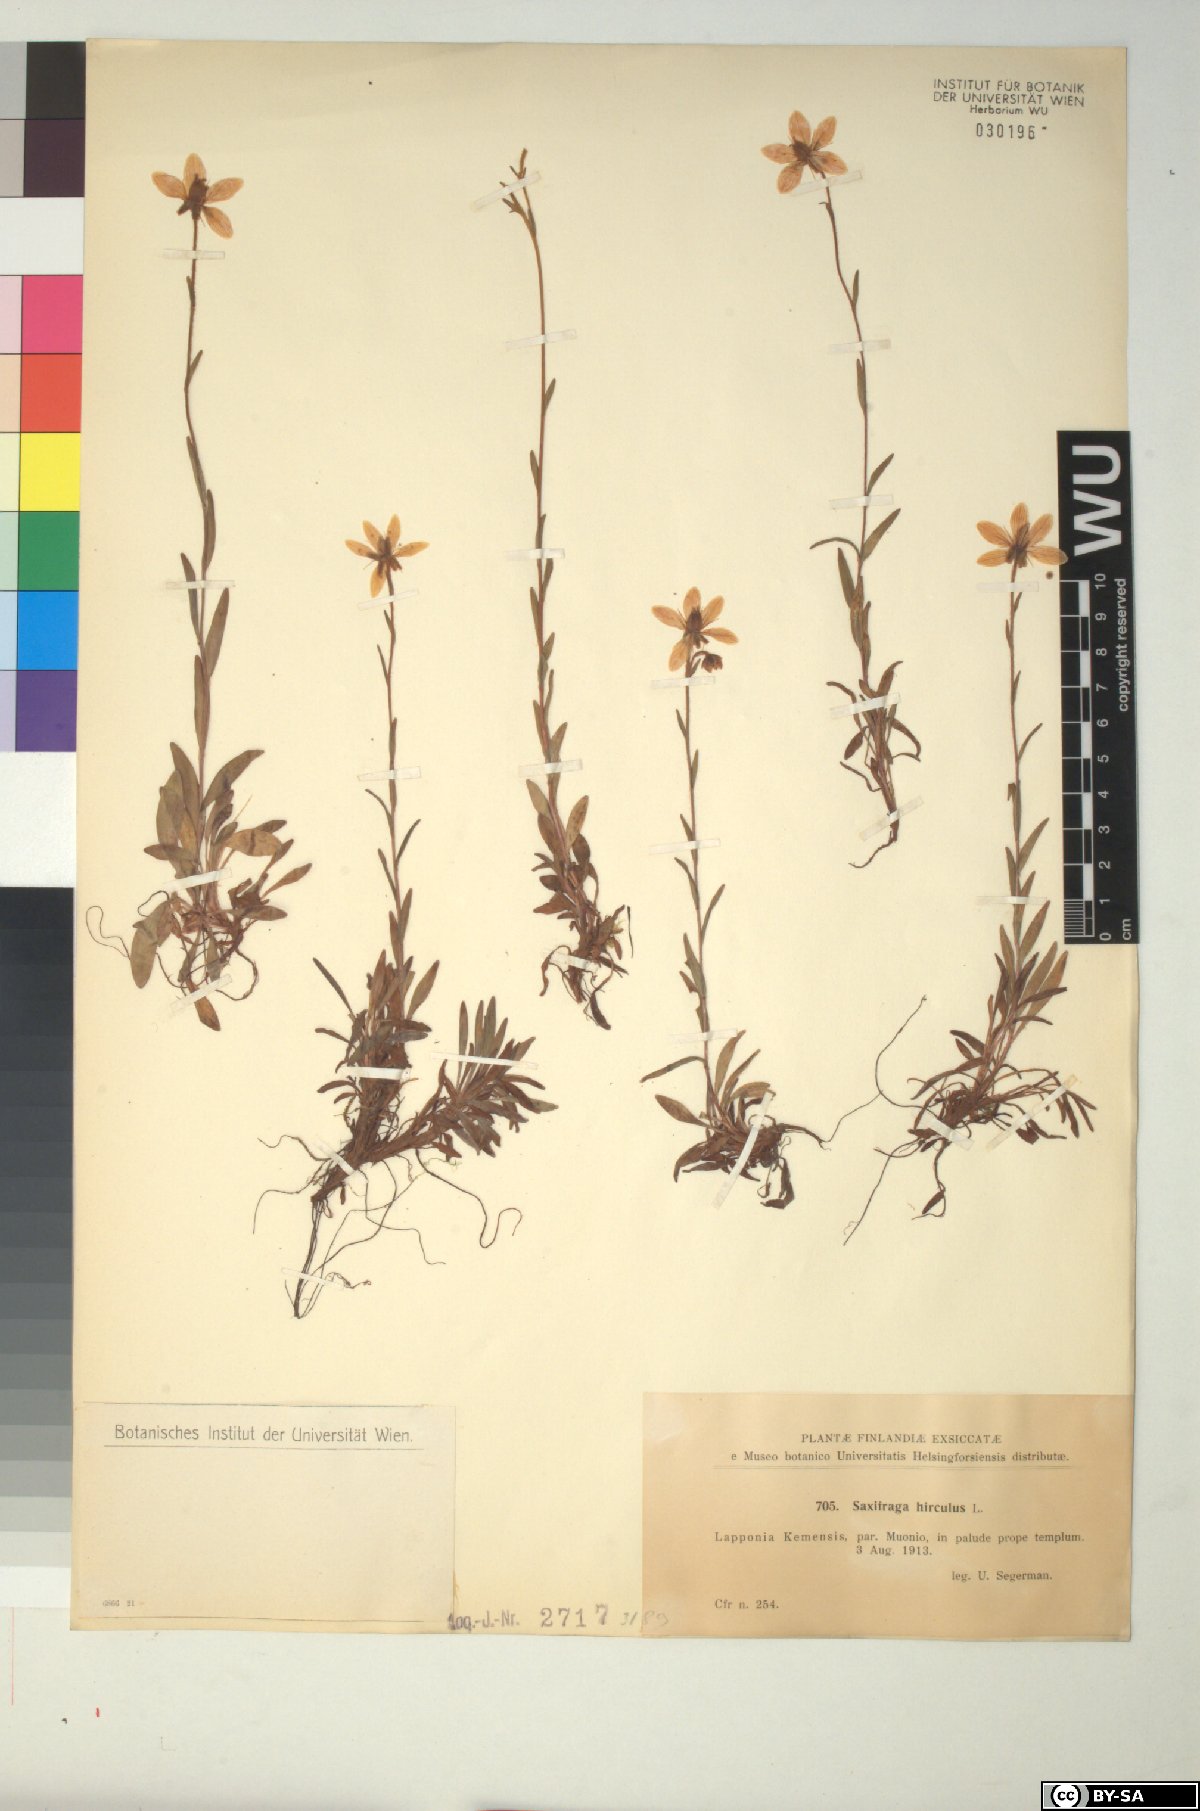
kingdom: Plantae
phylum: Tracheophyta
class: Magnoliopsida
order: Saxifragales
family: Saxifragaceae
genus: Saxifraga
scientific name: Saxifraga hirculus
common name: Yellow marsh saxifrage
